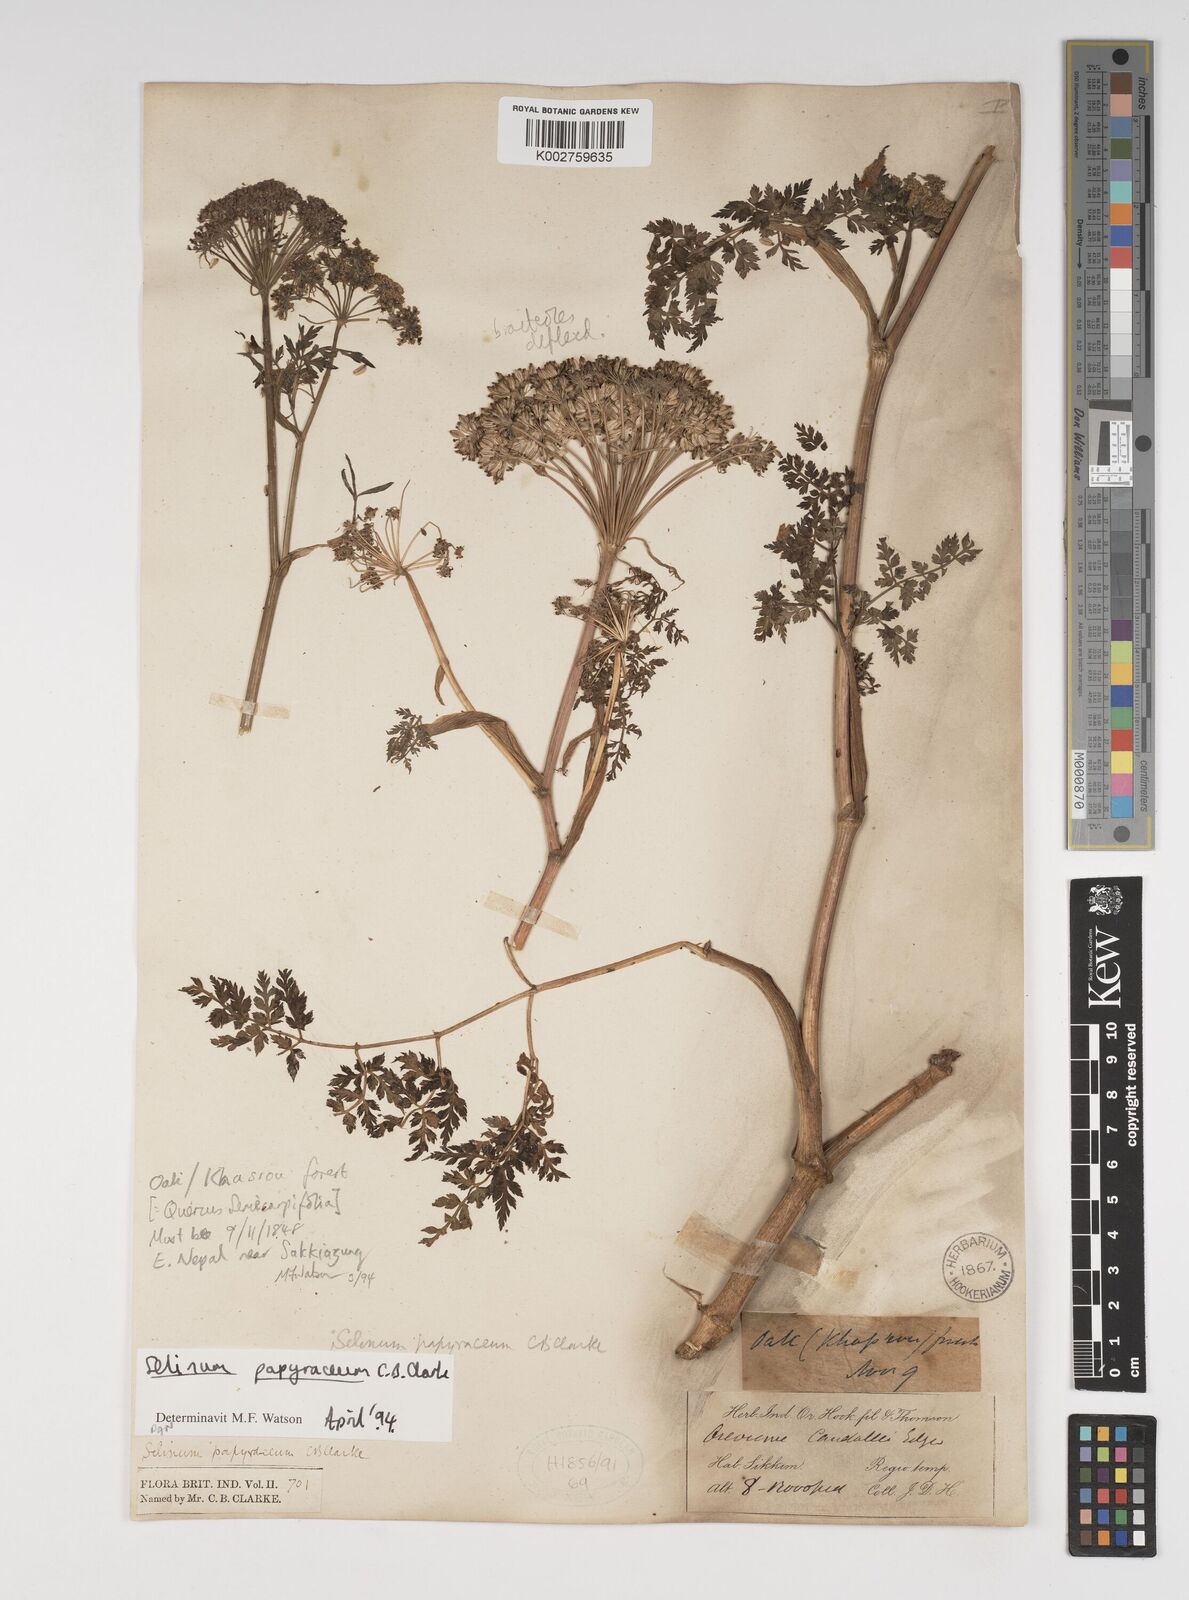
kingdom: Plantae
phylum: Tracheophyta
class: Magnoliopsida
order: Apiales
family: Apiaceae
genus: Conioselinum
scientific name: Conioselinum tataricum
